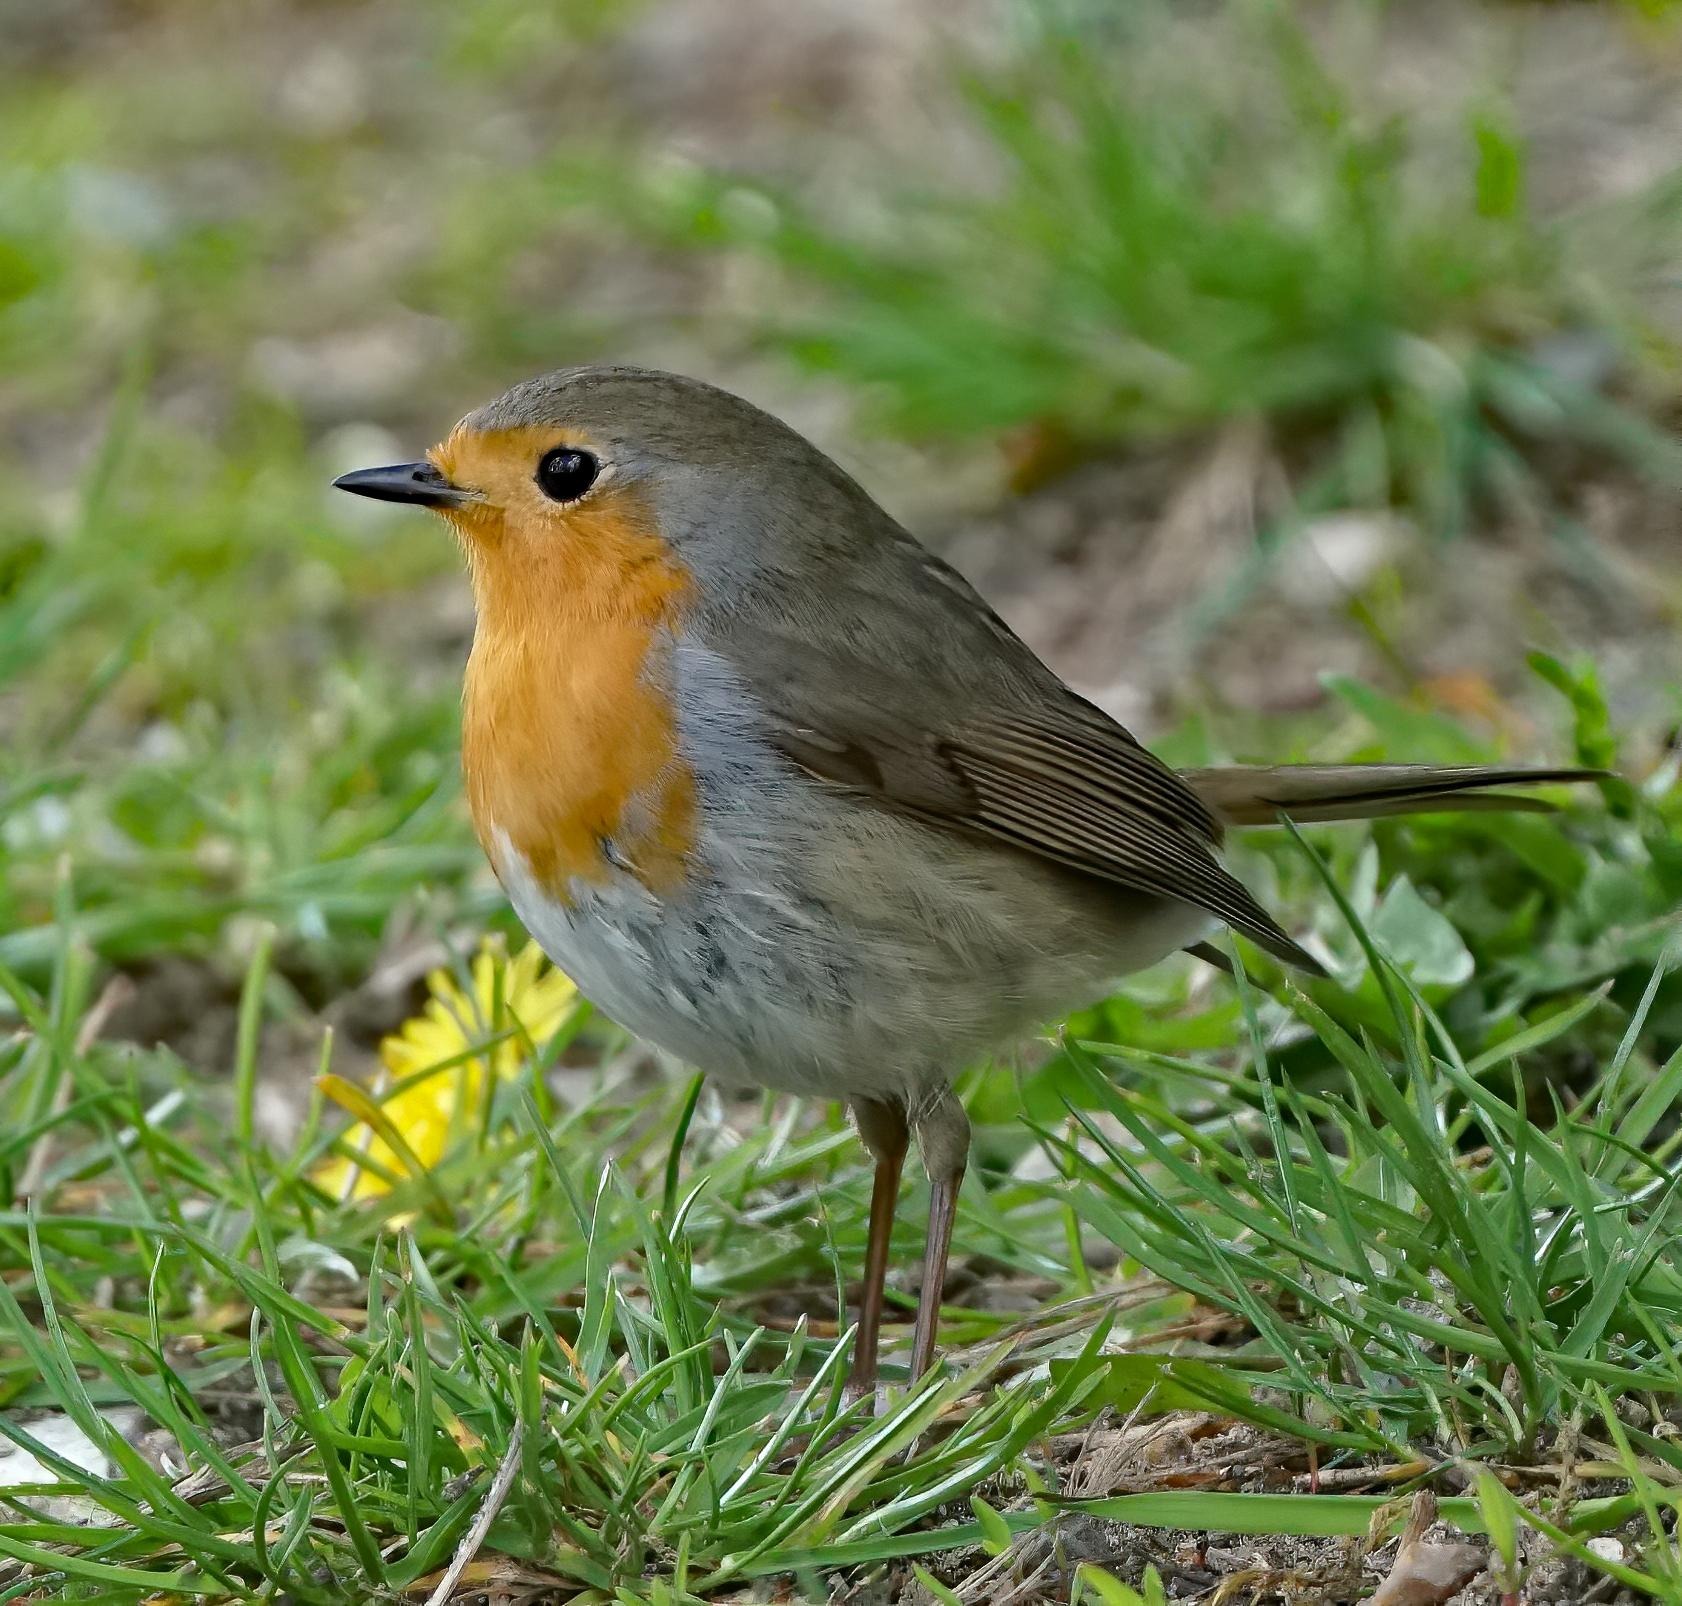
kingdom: Animalia
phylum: Chordata
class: Aves
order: Passeriformes
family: Muscicapidae
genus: Erithacus
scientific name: Erithacus rubecula
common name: Rødhals/rødkælk
